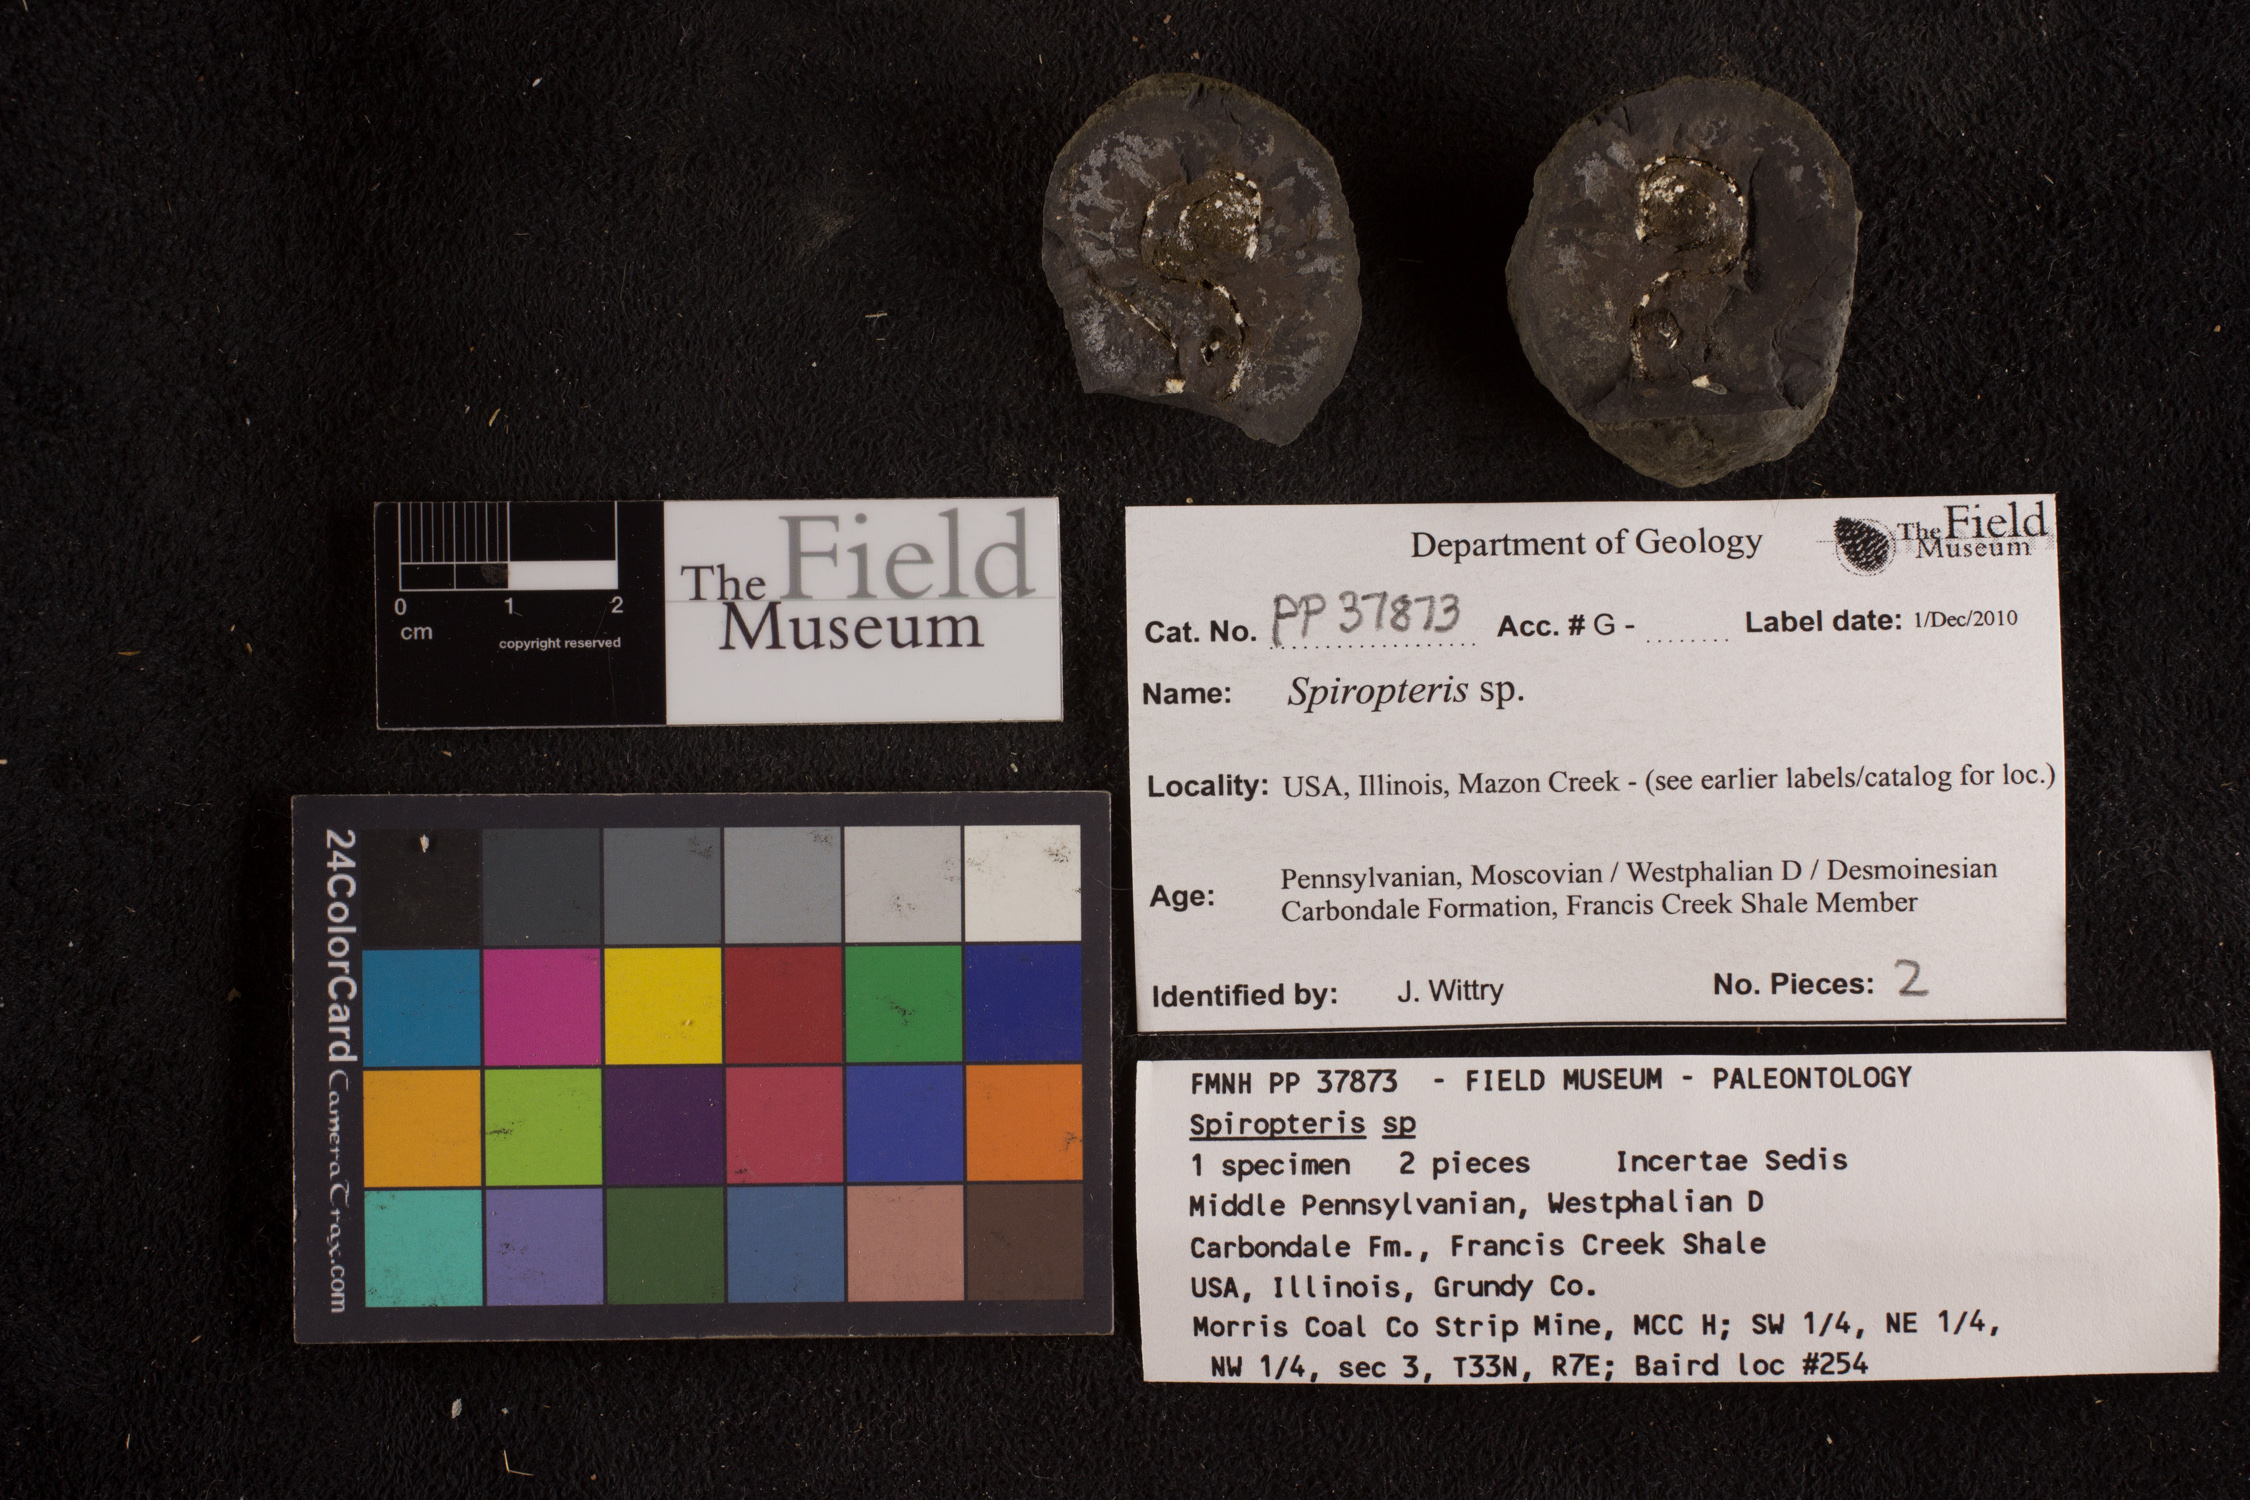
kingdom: Plantae
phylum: Tracheophyta
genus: Spiropteris
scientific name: Spiropteris
